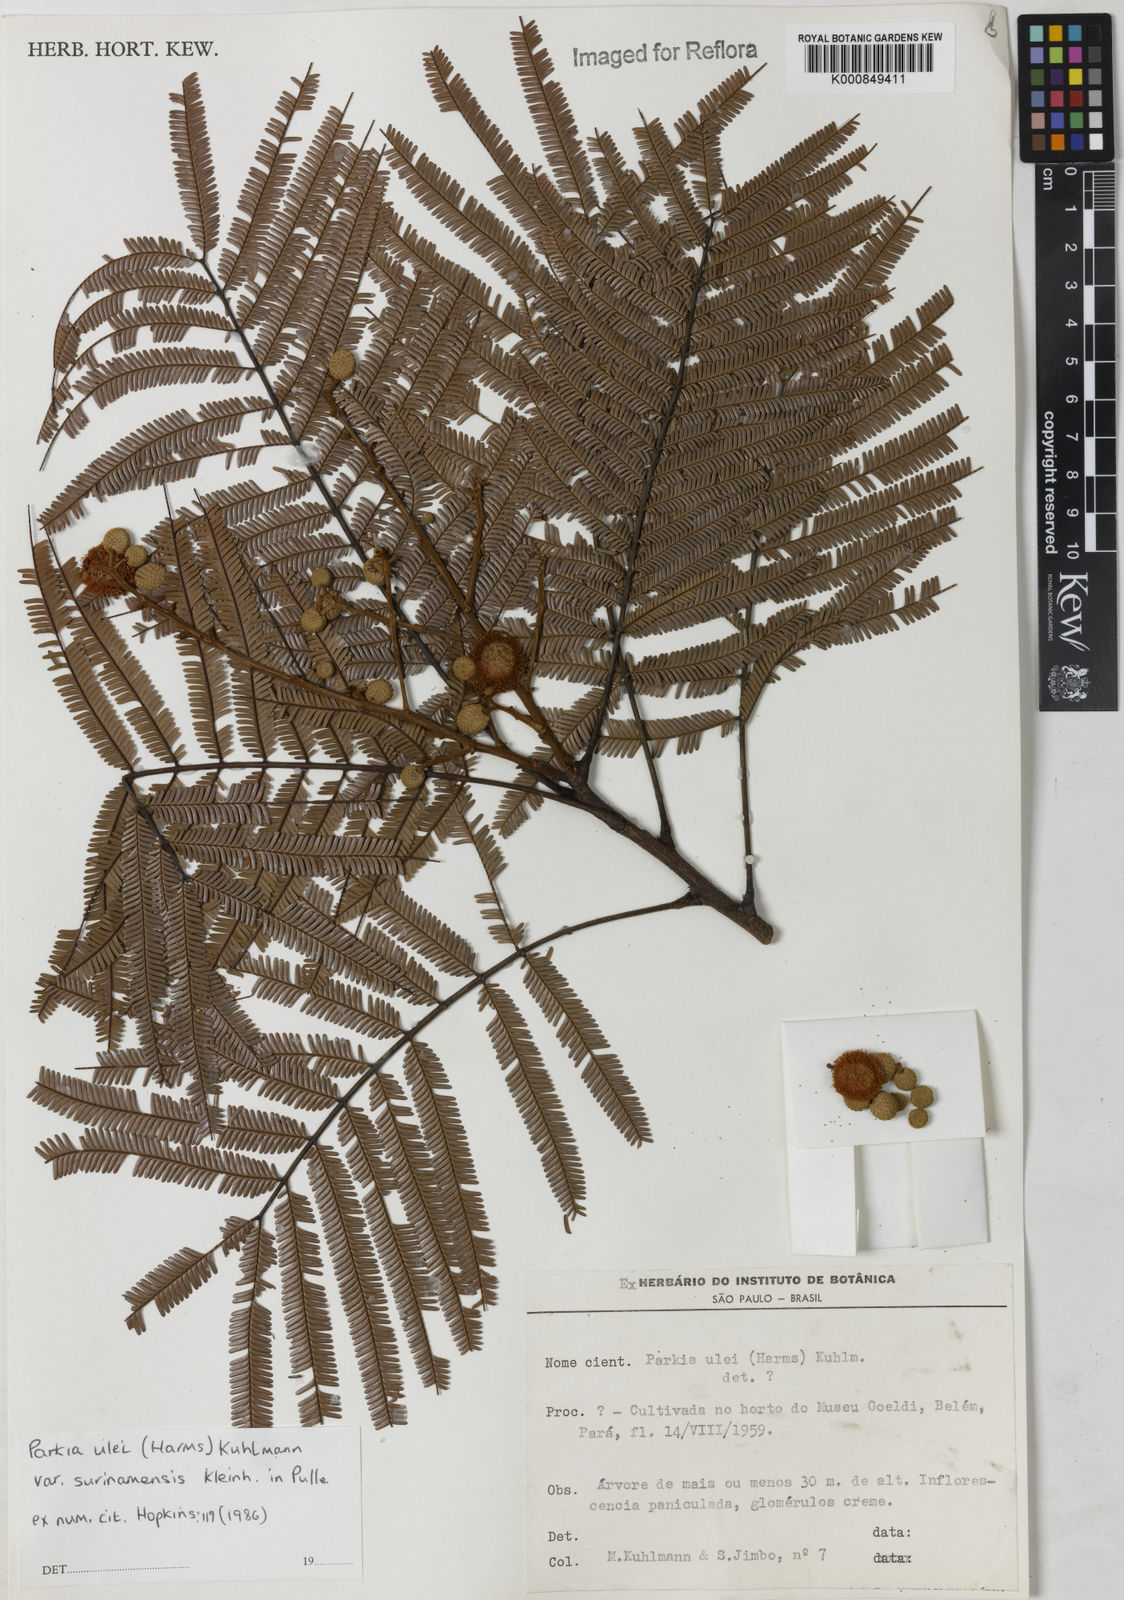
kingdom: Plantae
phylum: Tracheophyta
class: Magnoliopsida
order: Fabales
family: Fabaceae
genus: Parkia
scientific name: Parkia ulei
